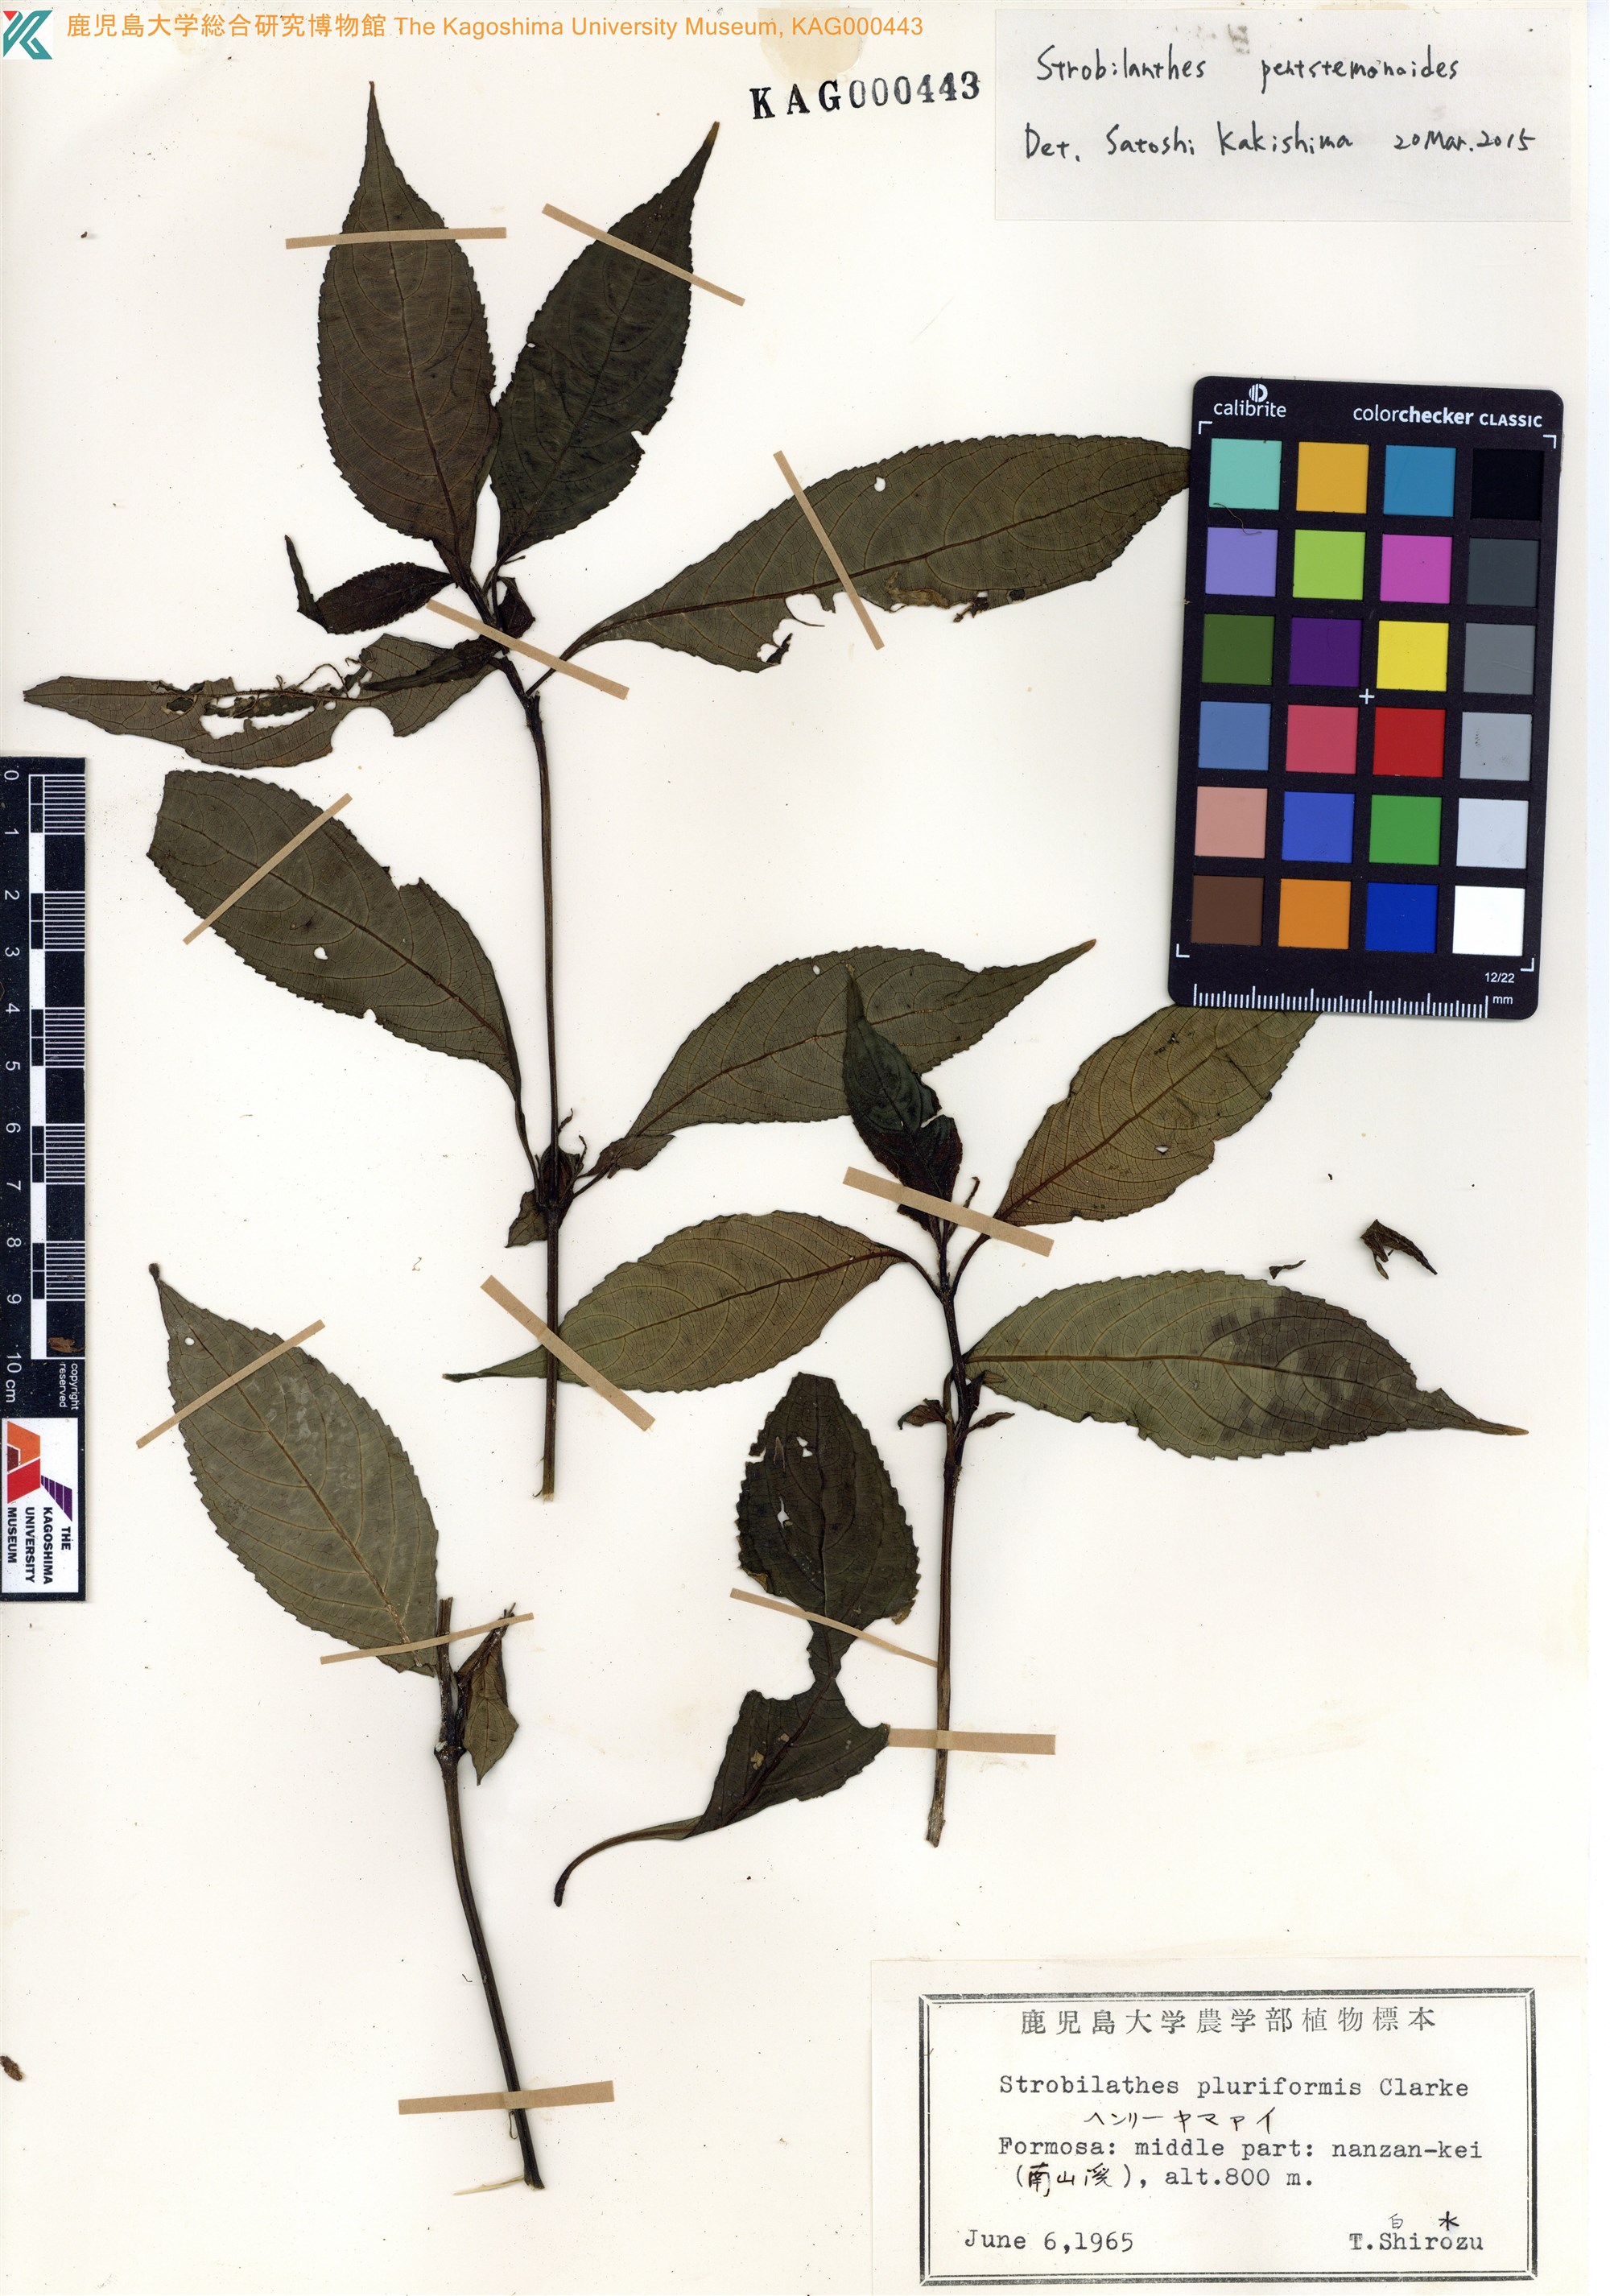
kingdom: Plantae
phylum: Tracheophyta
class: Magnoliopsida
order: Lamiales
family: Acanthaceae
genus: Strobilanthes
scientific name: Strobilanthes pluriformis
